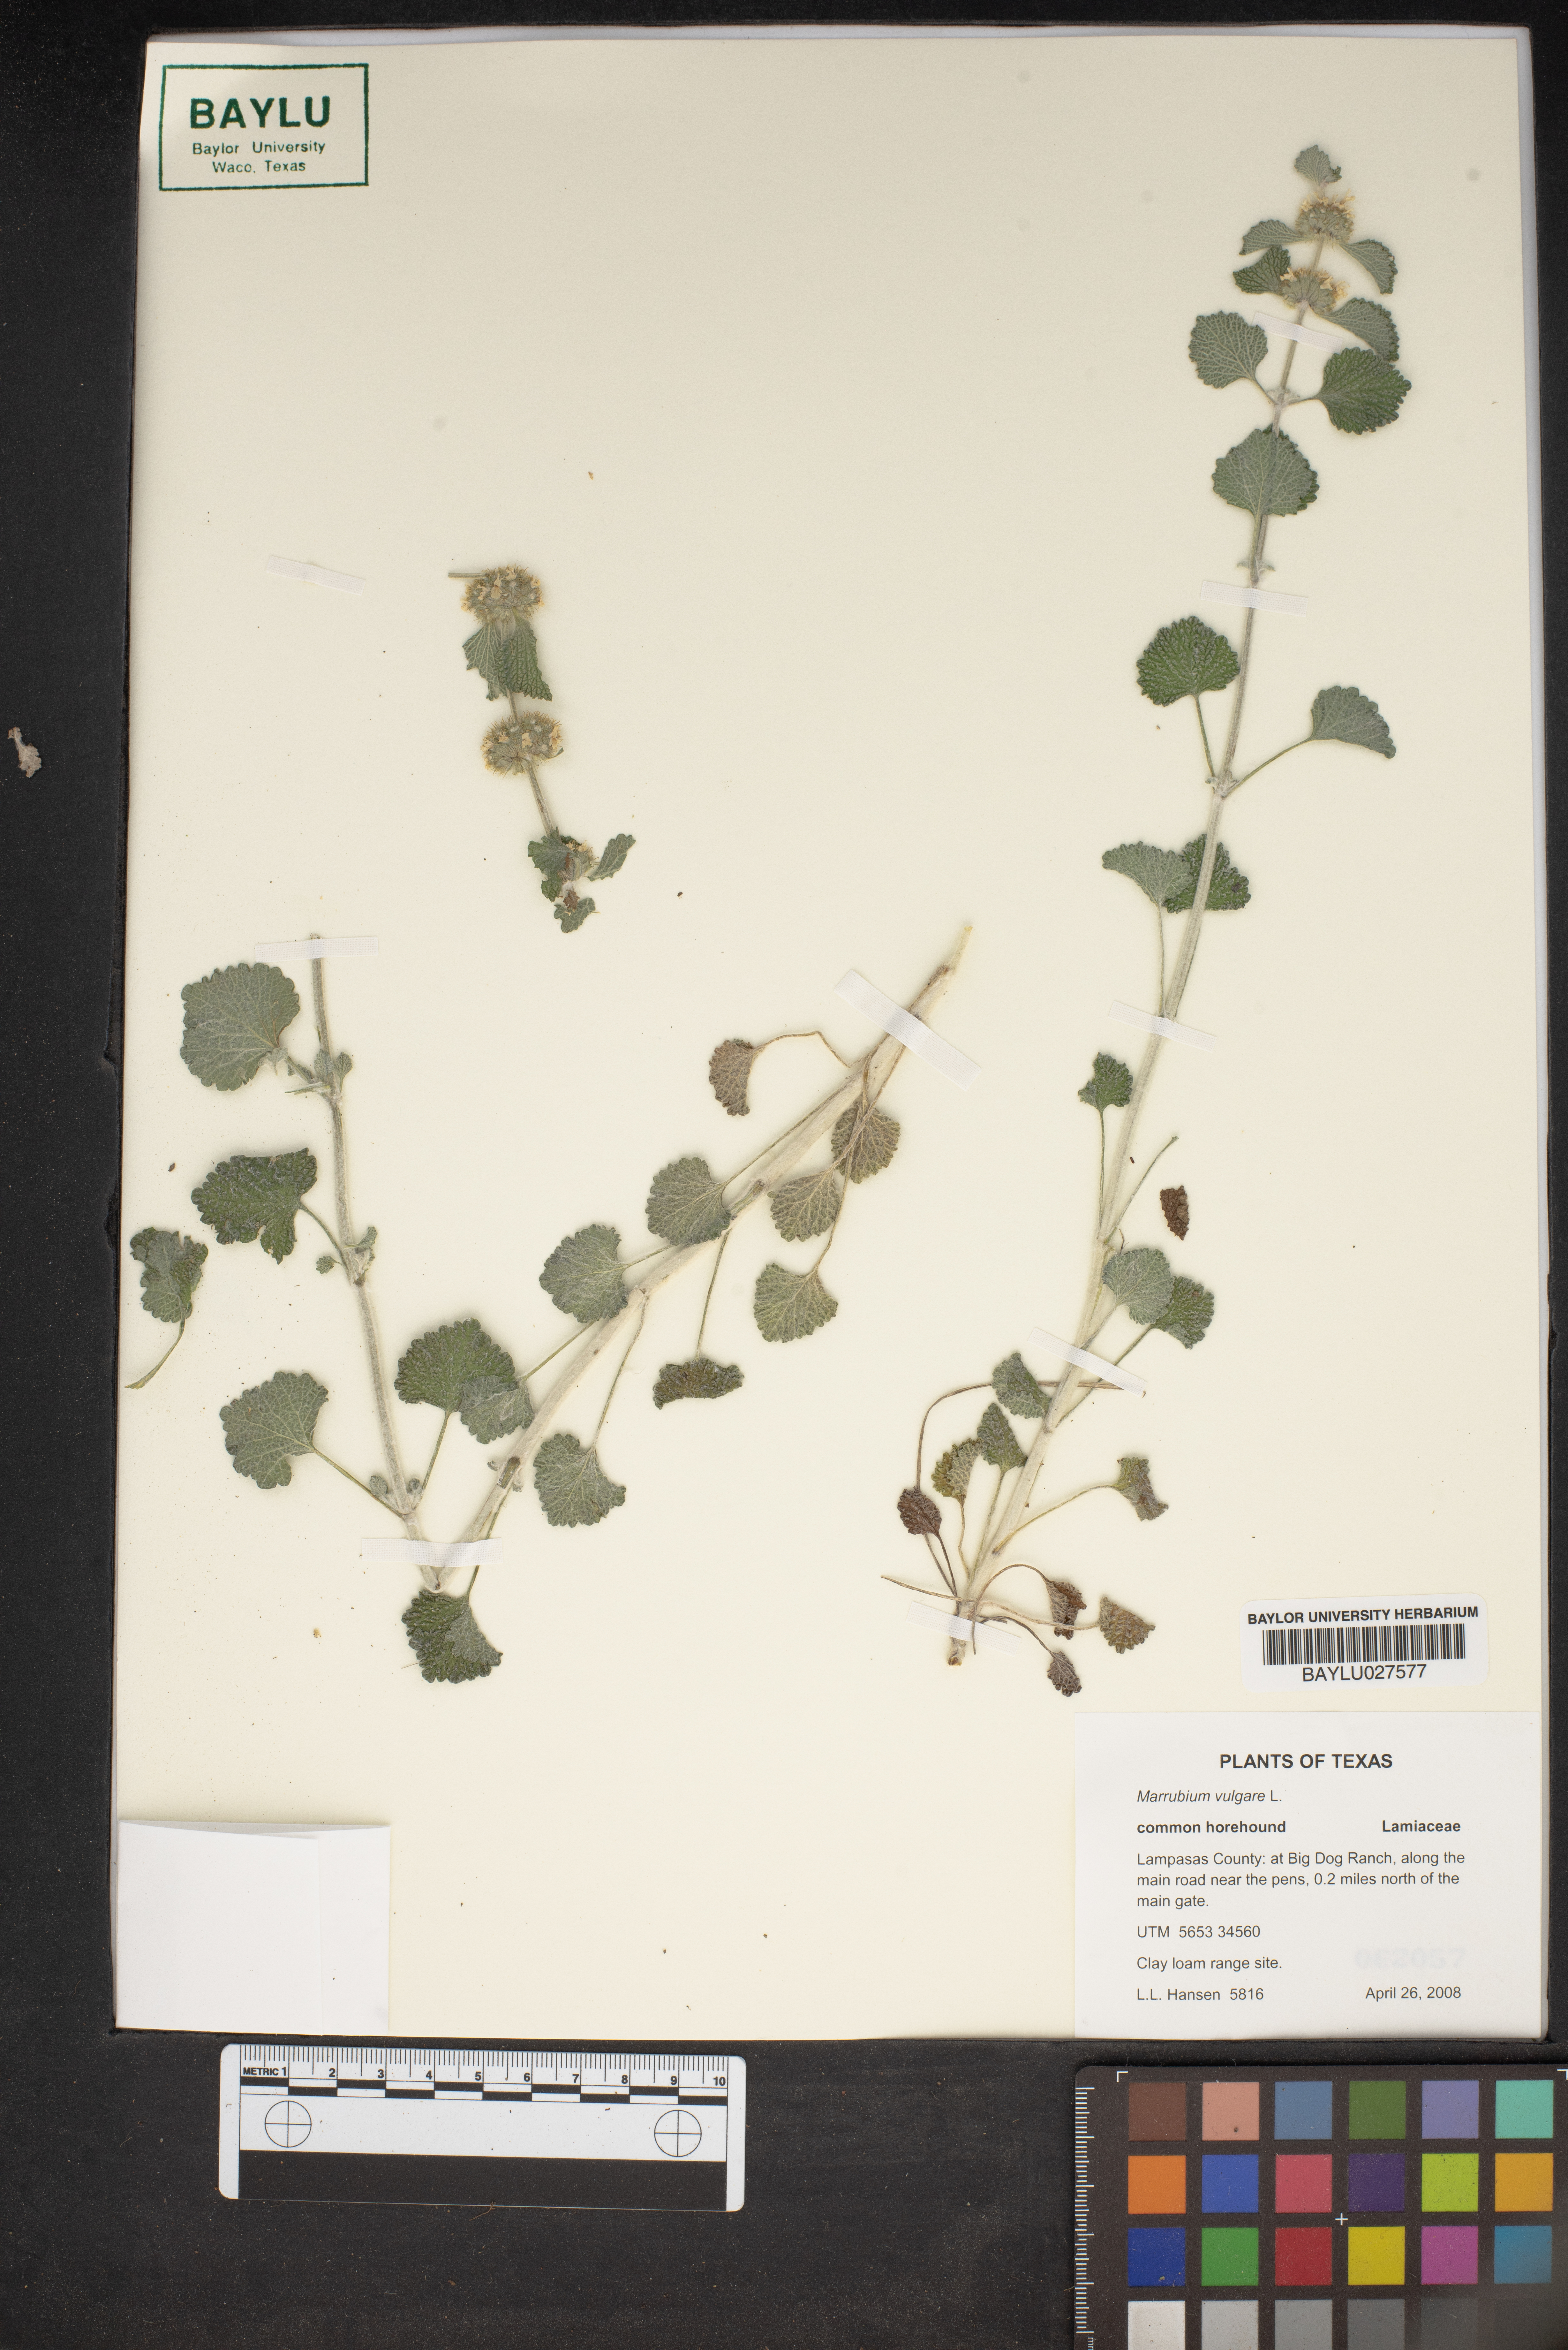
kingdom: Plantae
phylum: Tracheophyta
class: Magnoliopsida
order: Lamiales
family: Lamiaceae
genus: Marrubium
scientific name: Marrubium vulgare
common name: Horehound
